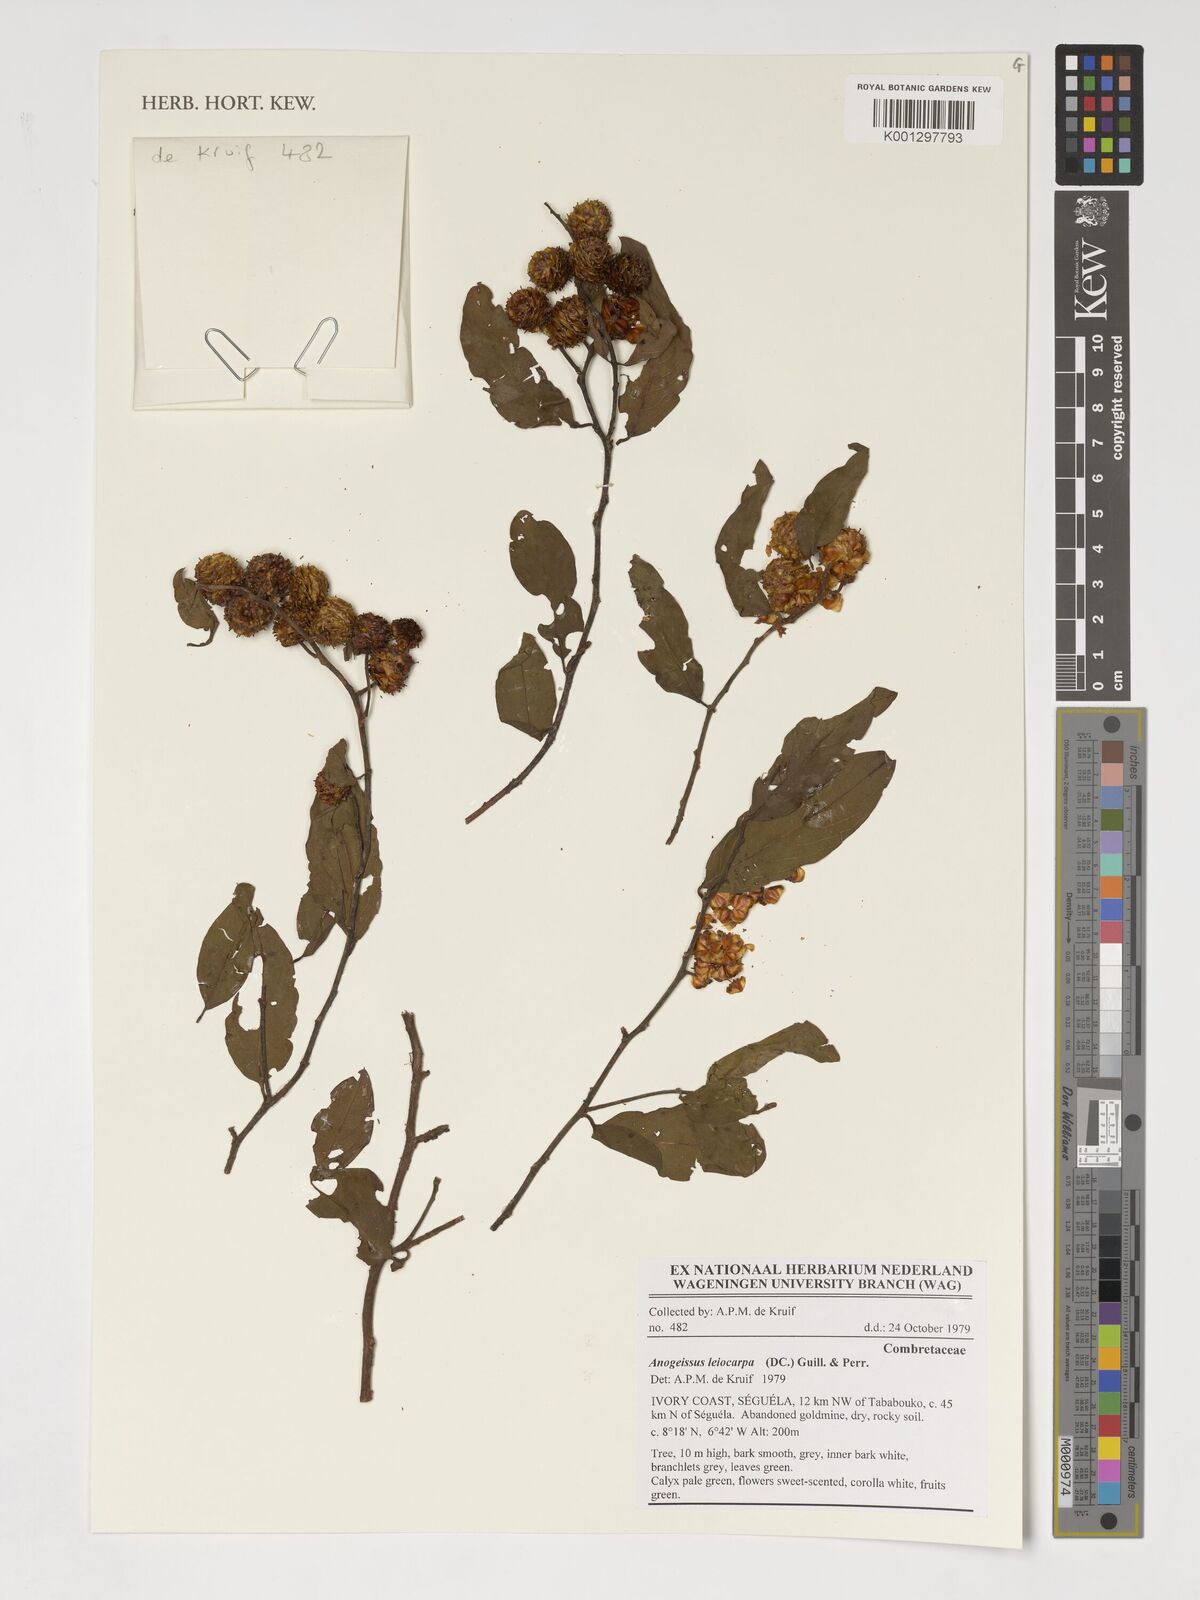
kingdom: Plantae
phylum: Tracheophyta
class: Magnoliopsida
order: Myrtales
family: Combretaceae
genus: Terminalia
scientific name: Terminalia leiocarpa
